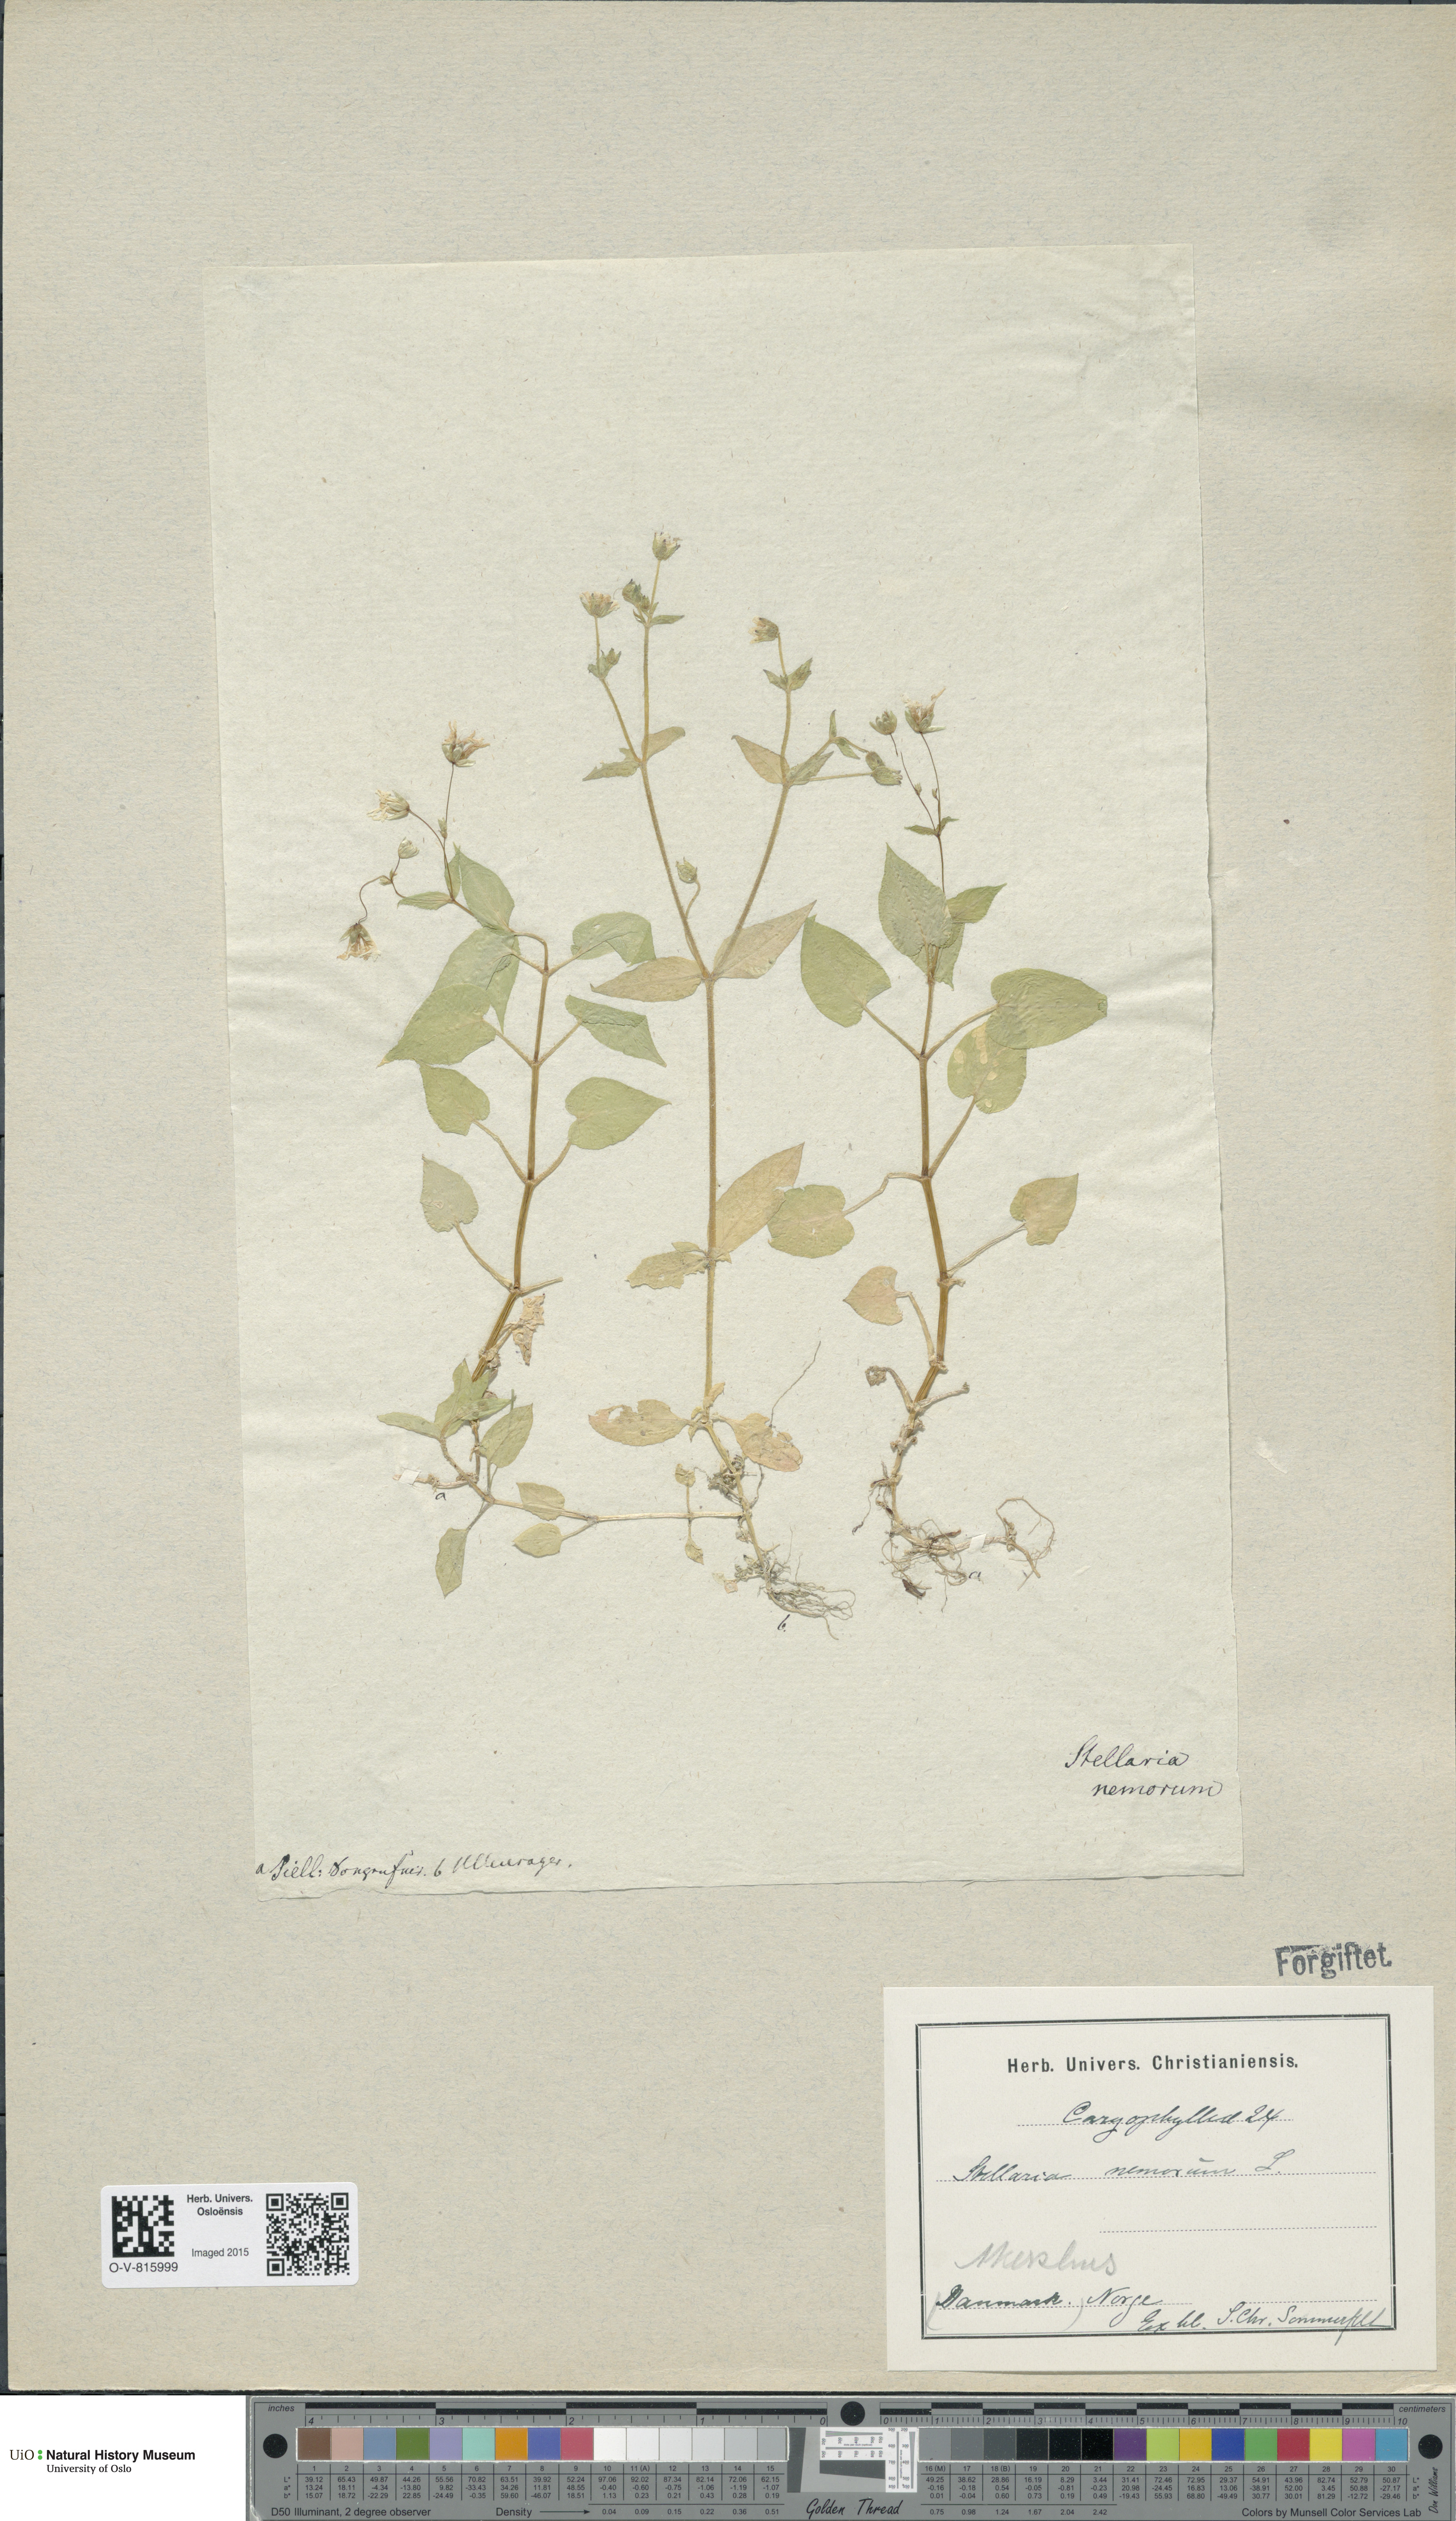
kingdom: Plantae
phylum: Tracheophyta
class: Magnoliopsida
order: Caryophyllales
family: Caryophyllaceae
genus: Stellaria
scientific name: Stellaria nemorum
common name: Wood stitchwort
